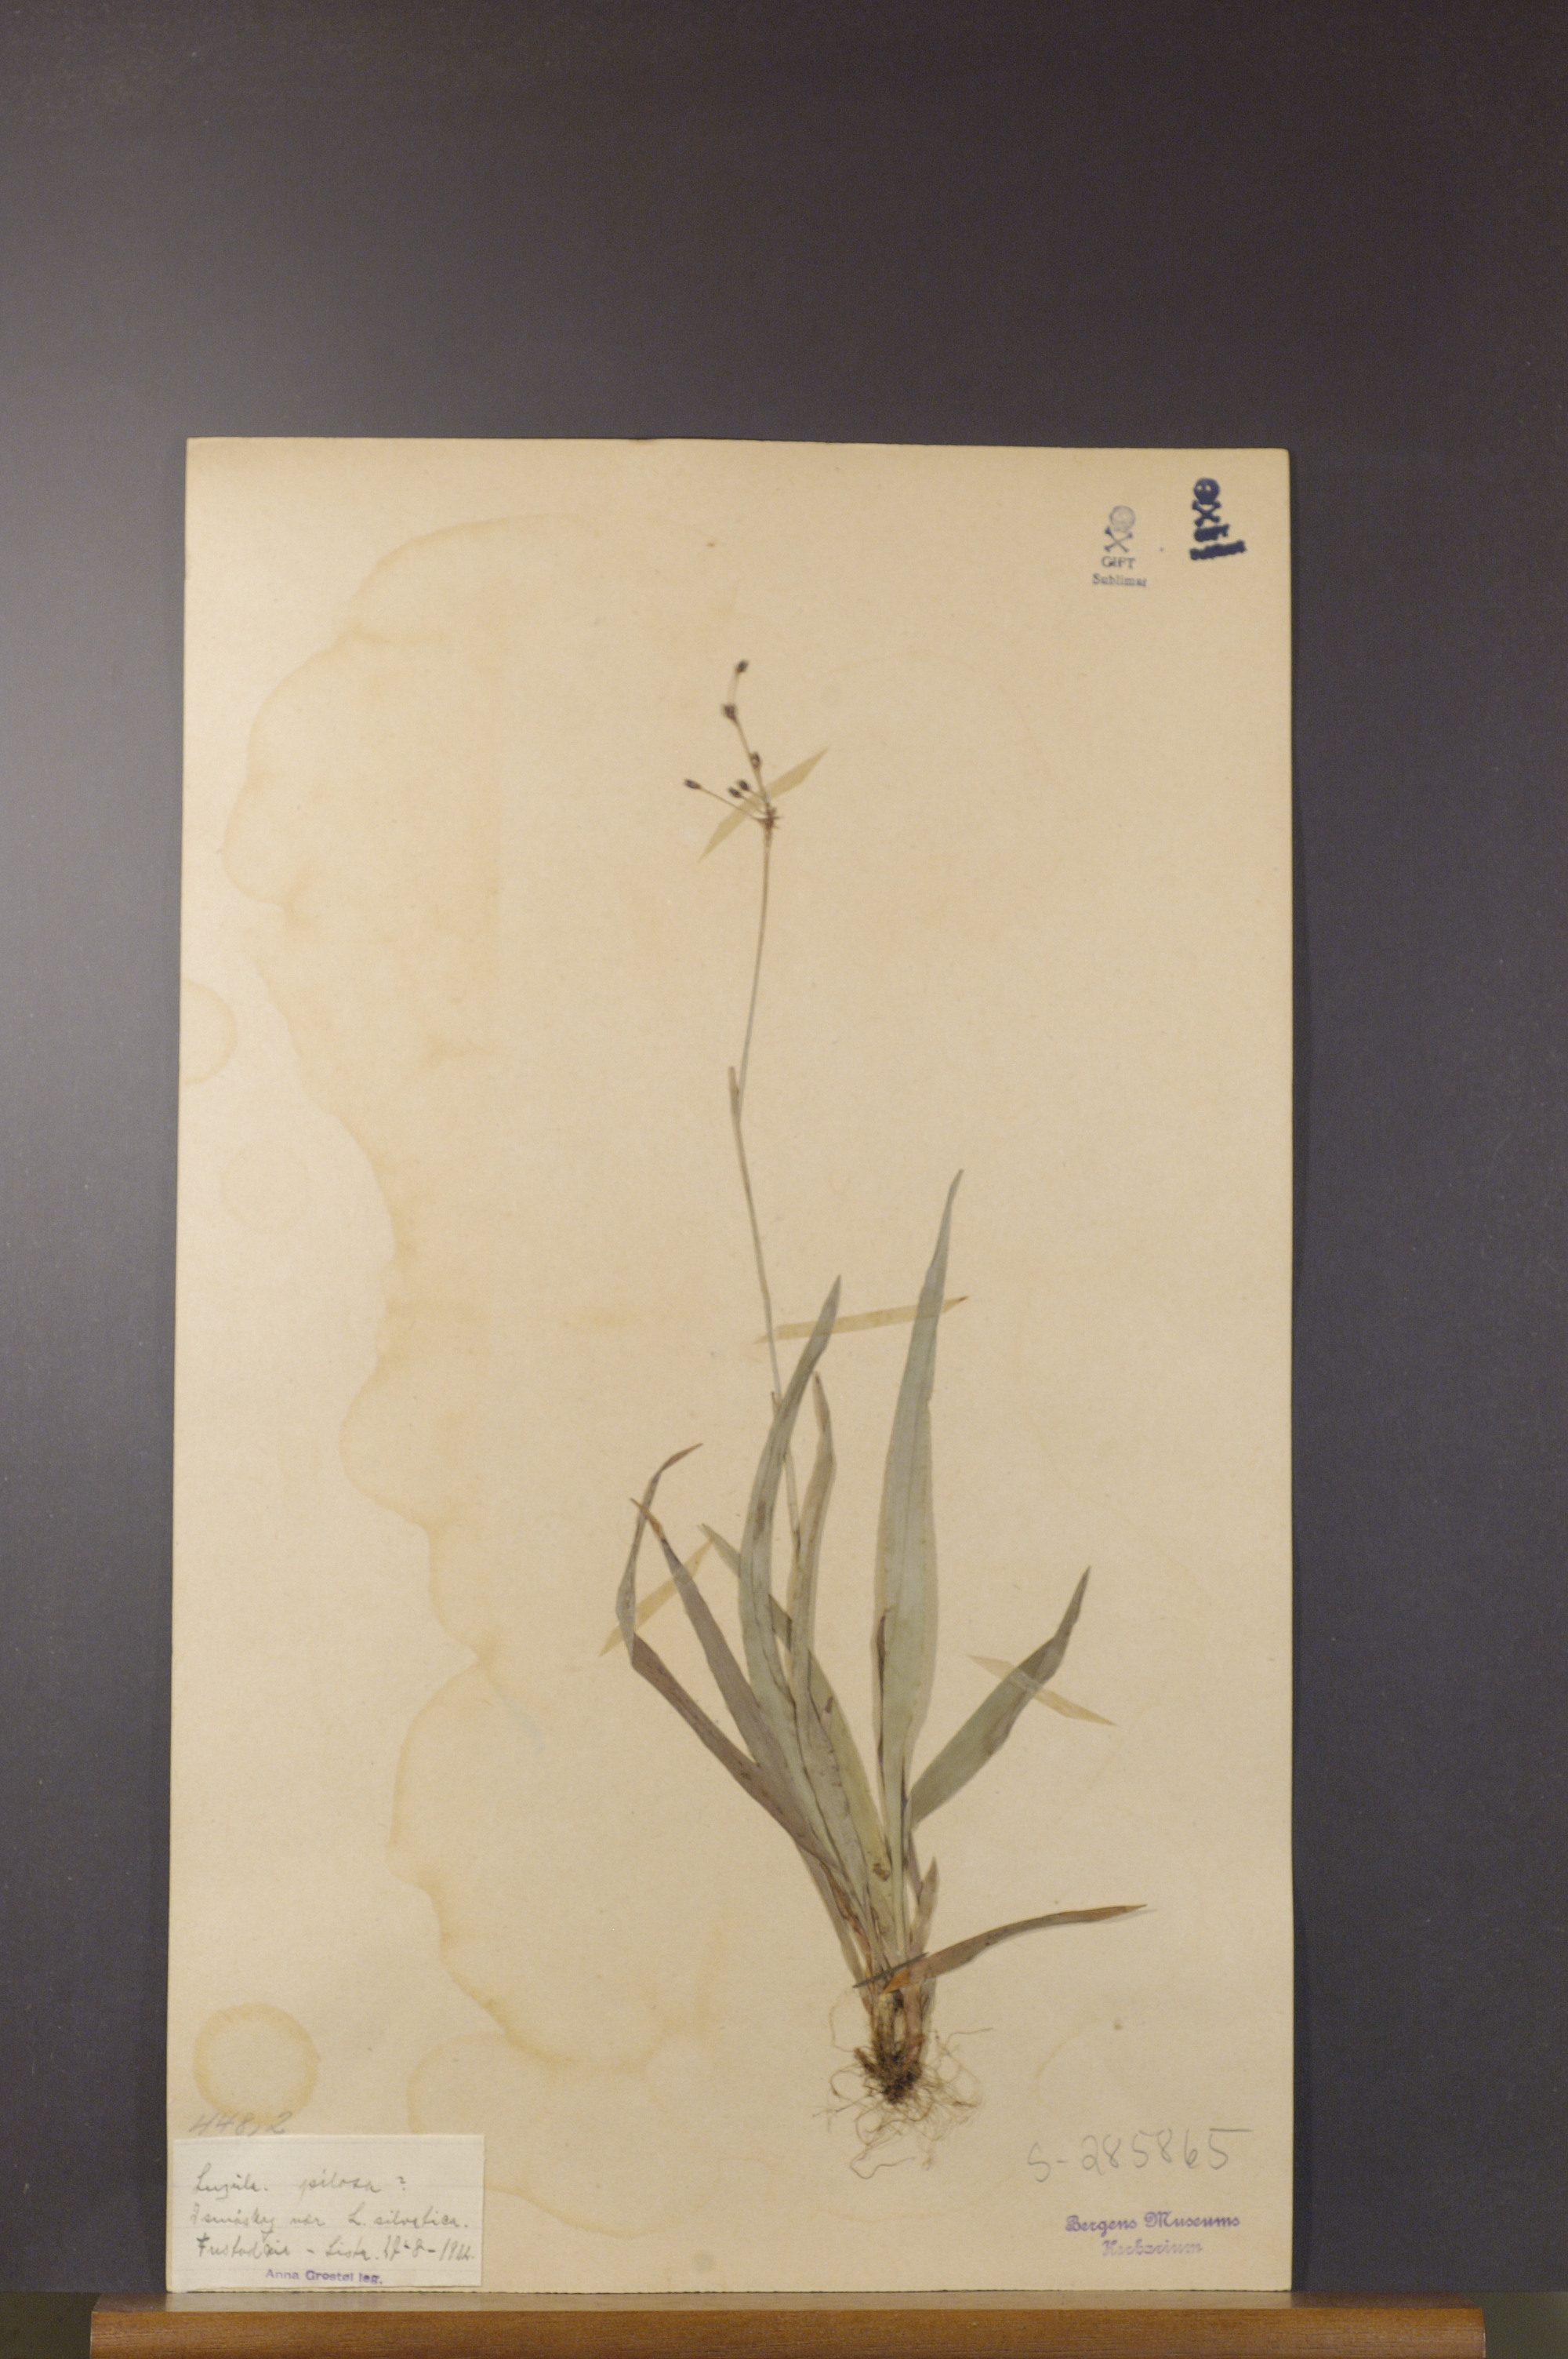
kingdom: Plantae
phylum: Tracheophyta
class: Liliopsida
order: Poales
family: Juncaceae
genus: Luzula
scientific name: Luzula pilosa
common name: Hairy wood-rush
